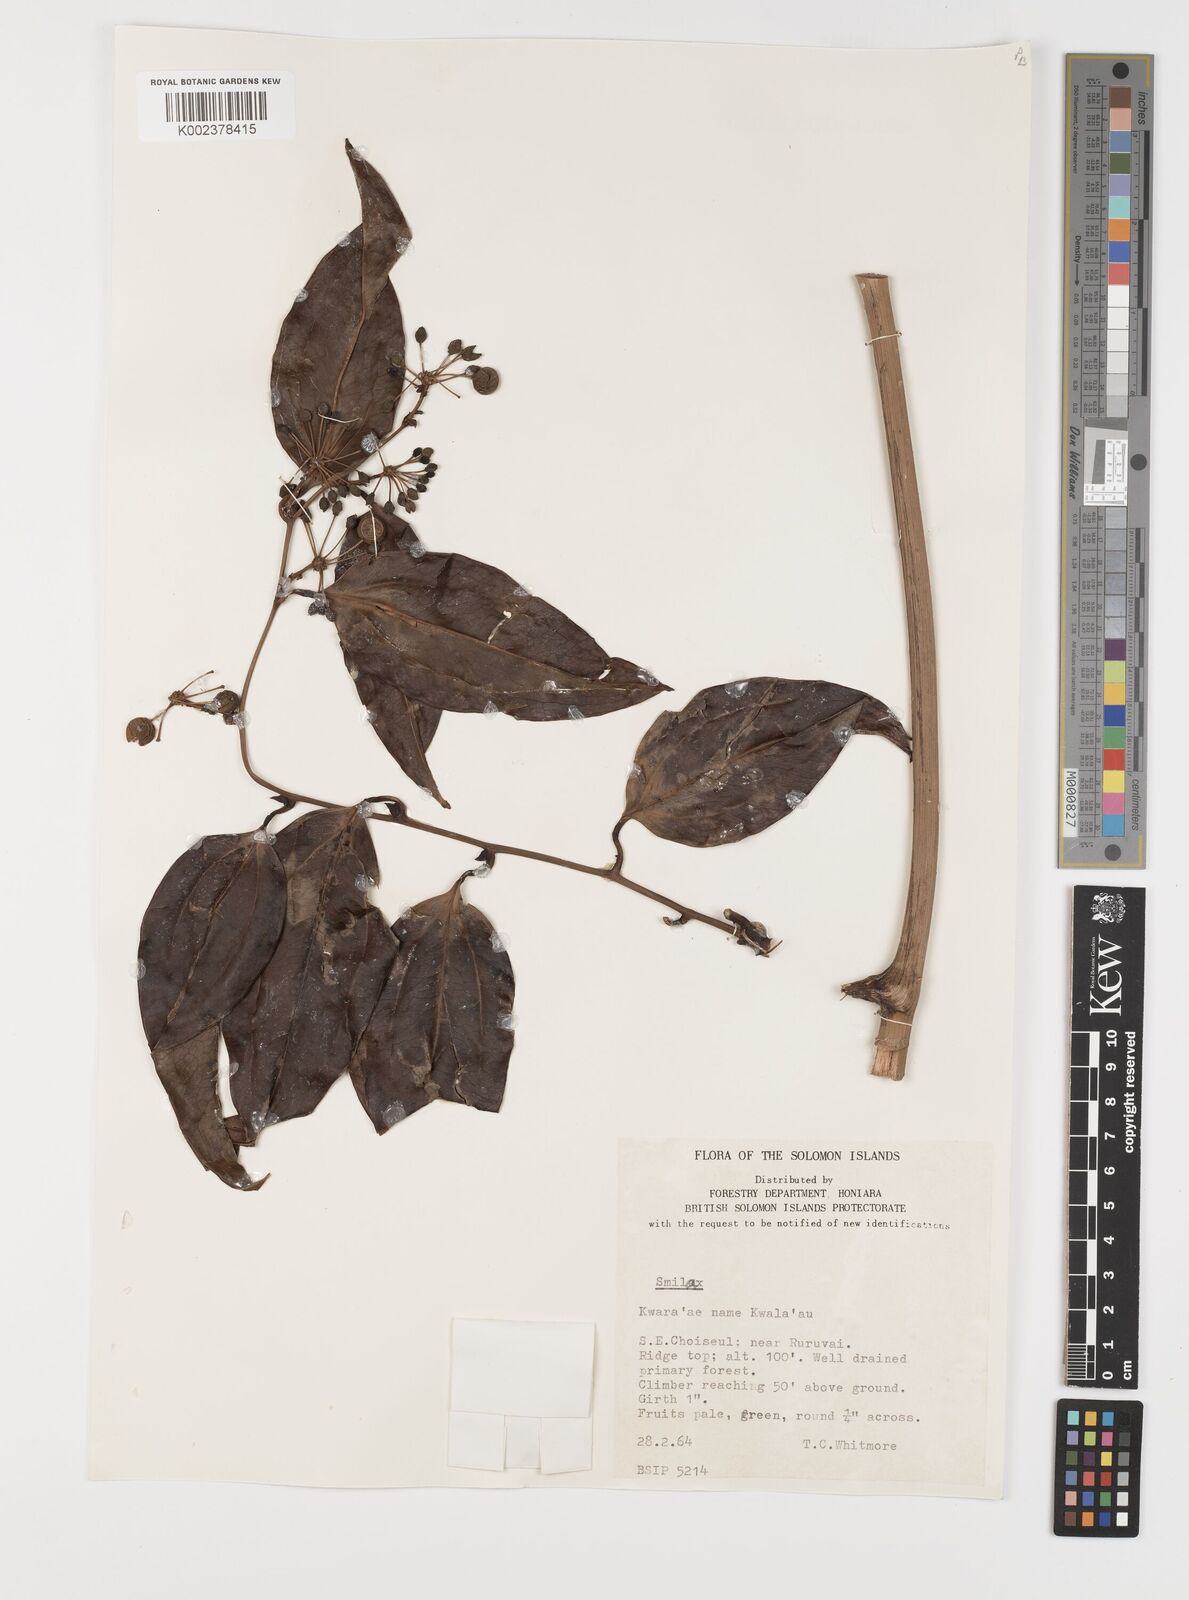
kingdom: Plantae
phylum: Tracheophyta
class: Liliopsida
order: Liliales
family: Smilacaceae
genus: Smilax
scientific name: Smilax
